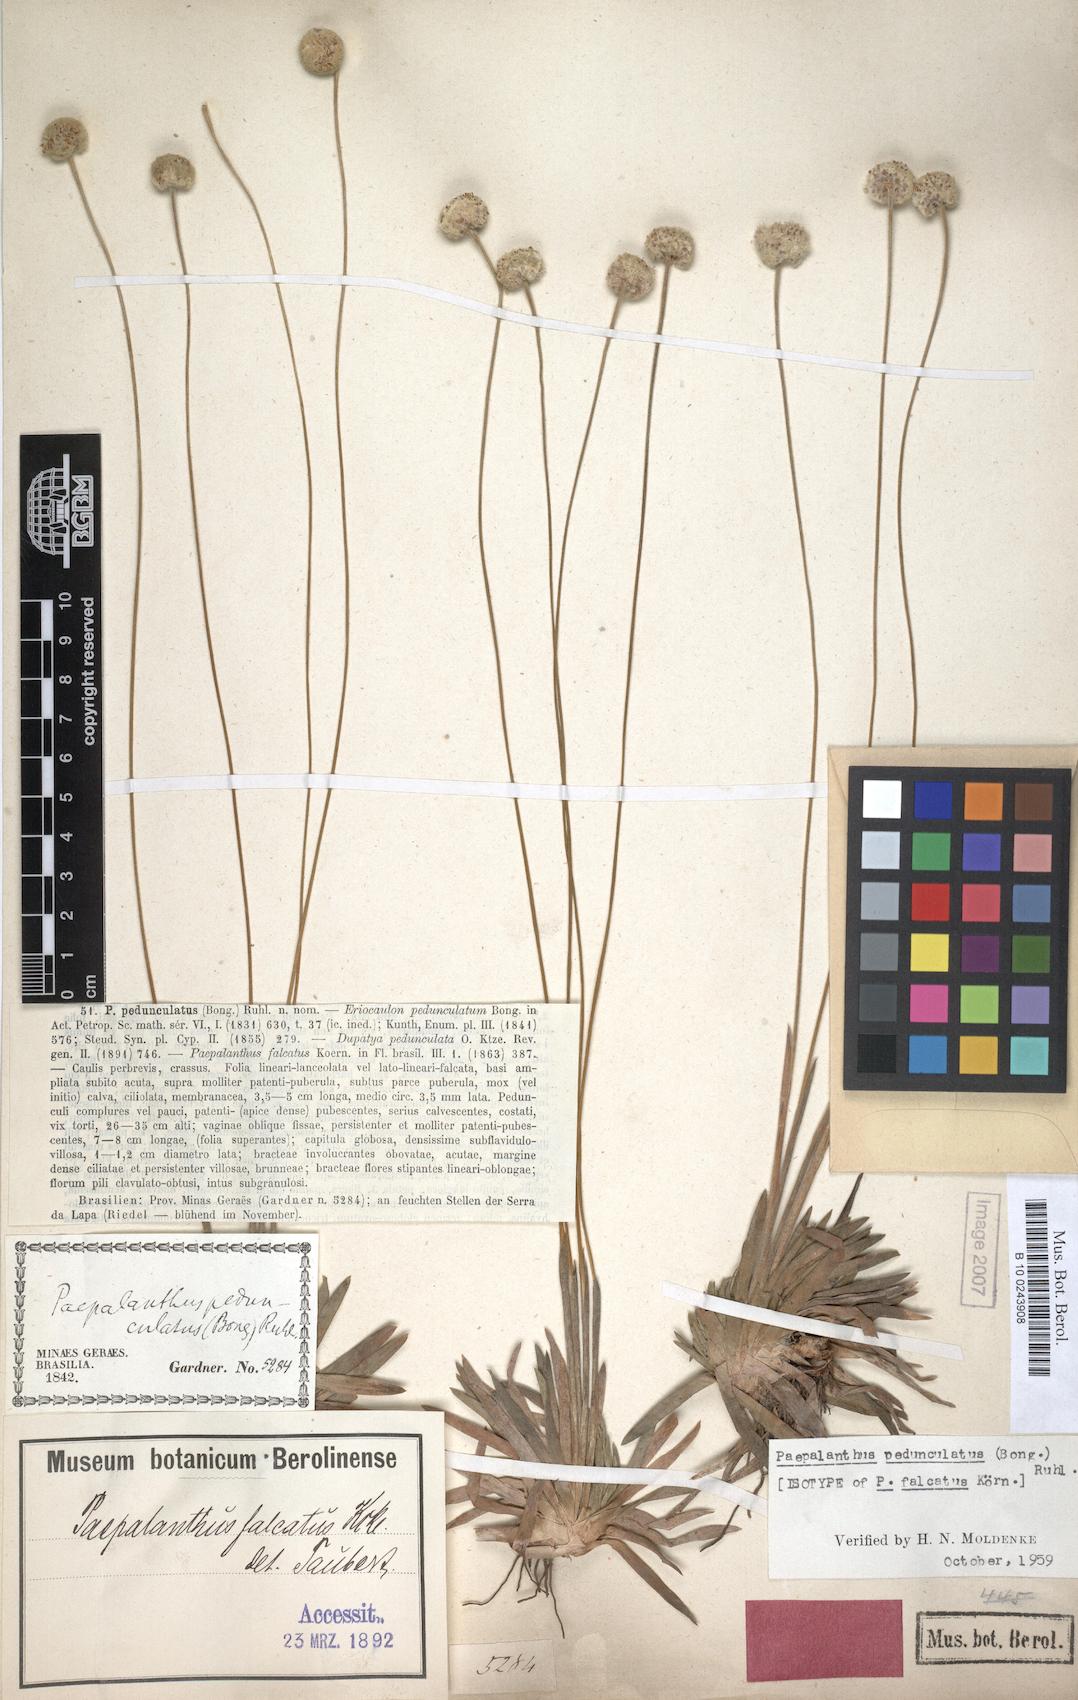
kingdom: Plantae
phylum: Tracheophyta
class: Liliopsida
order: Poales
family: Eriocaulaceae
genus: Paepalanthus
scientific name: Paepalanthus pedunculatus
